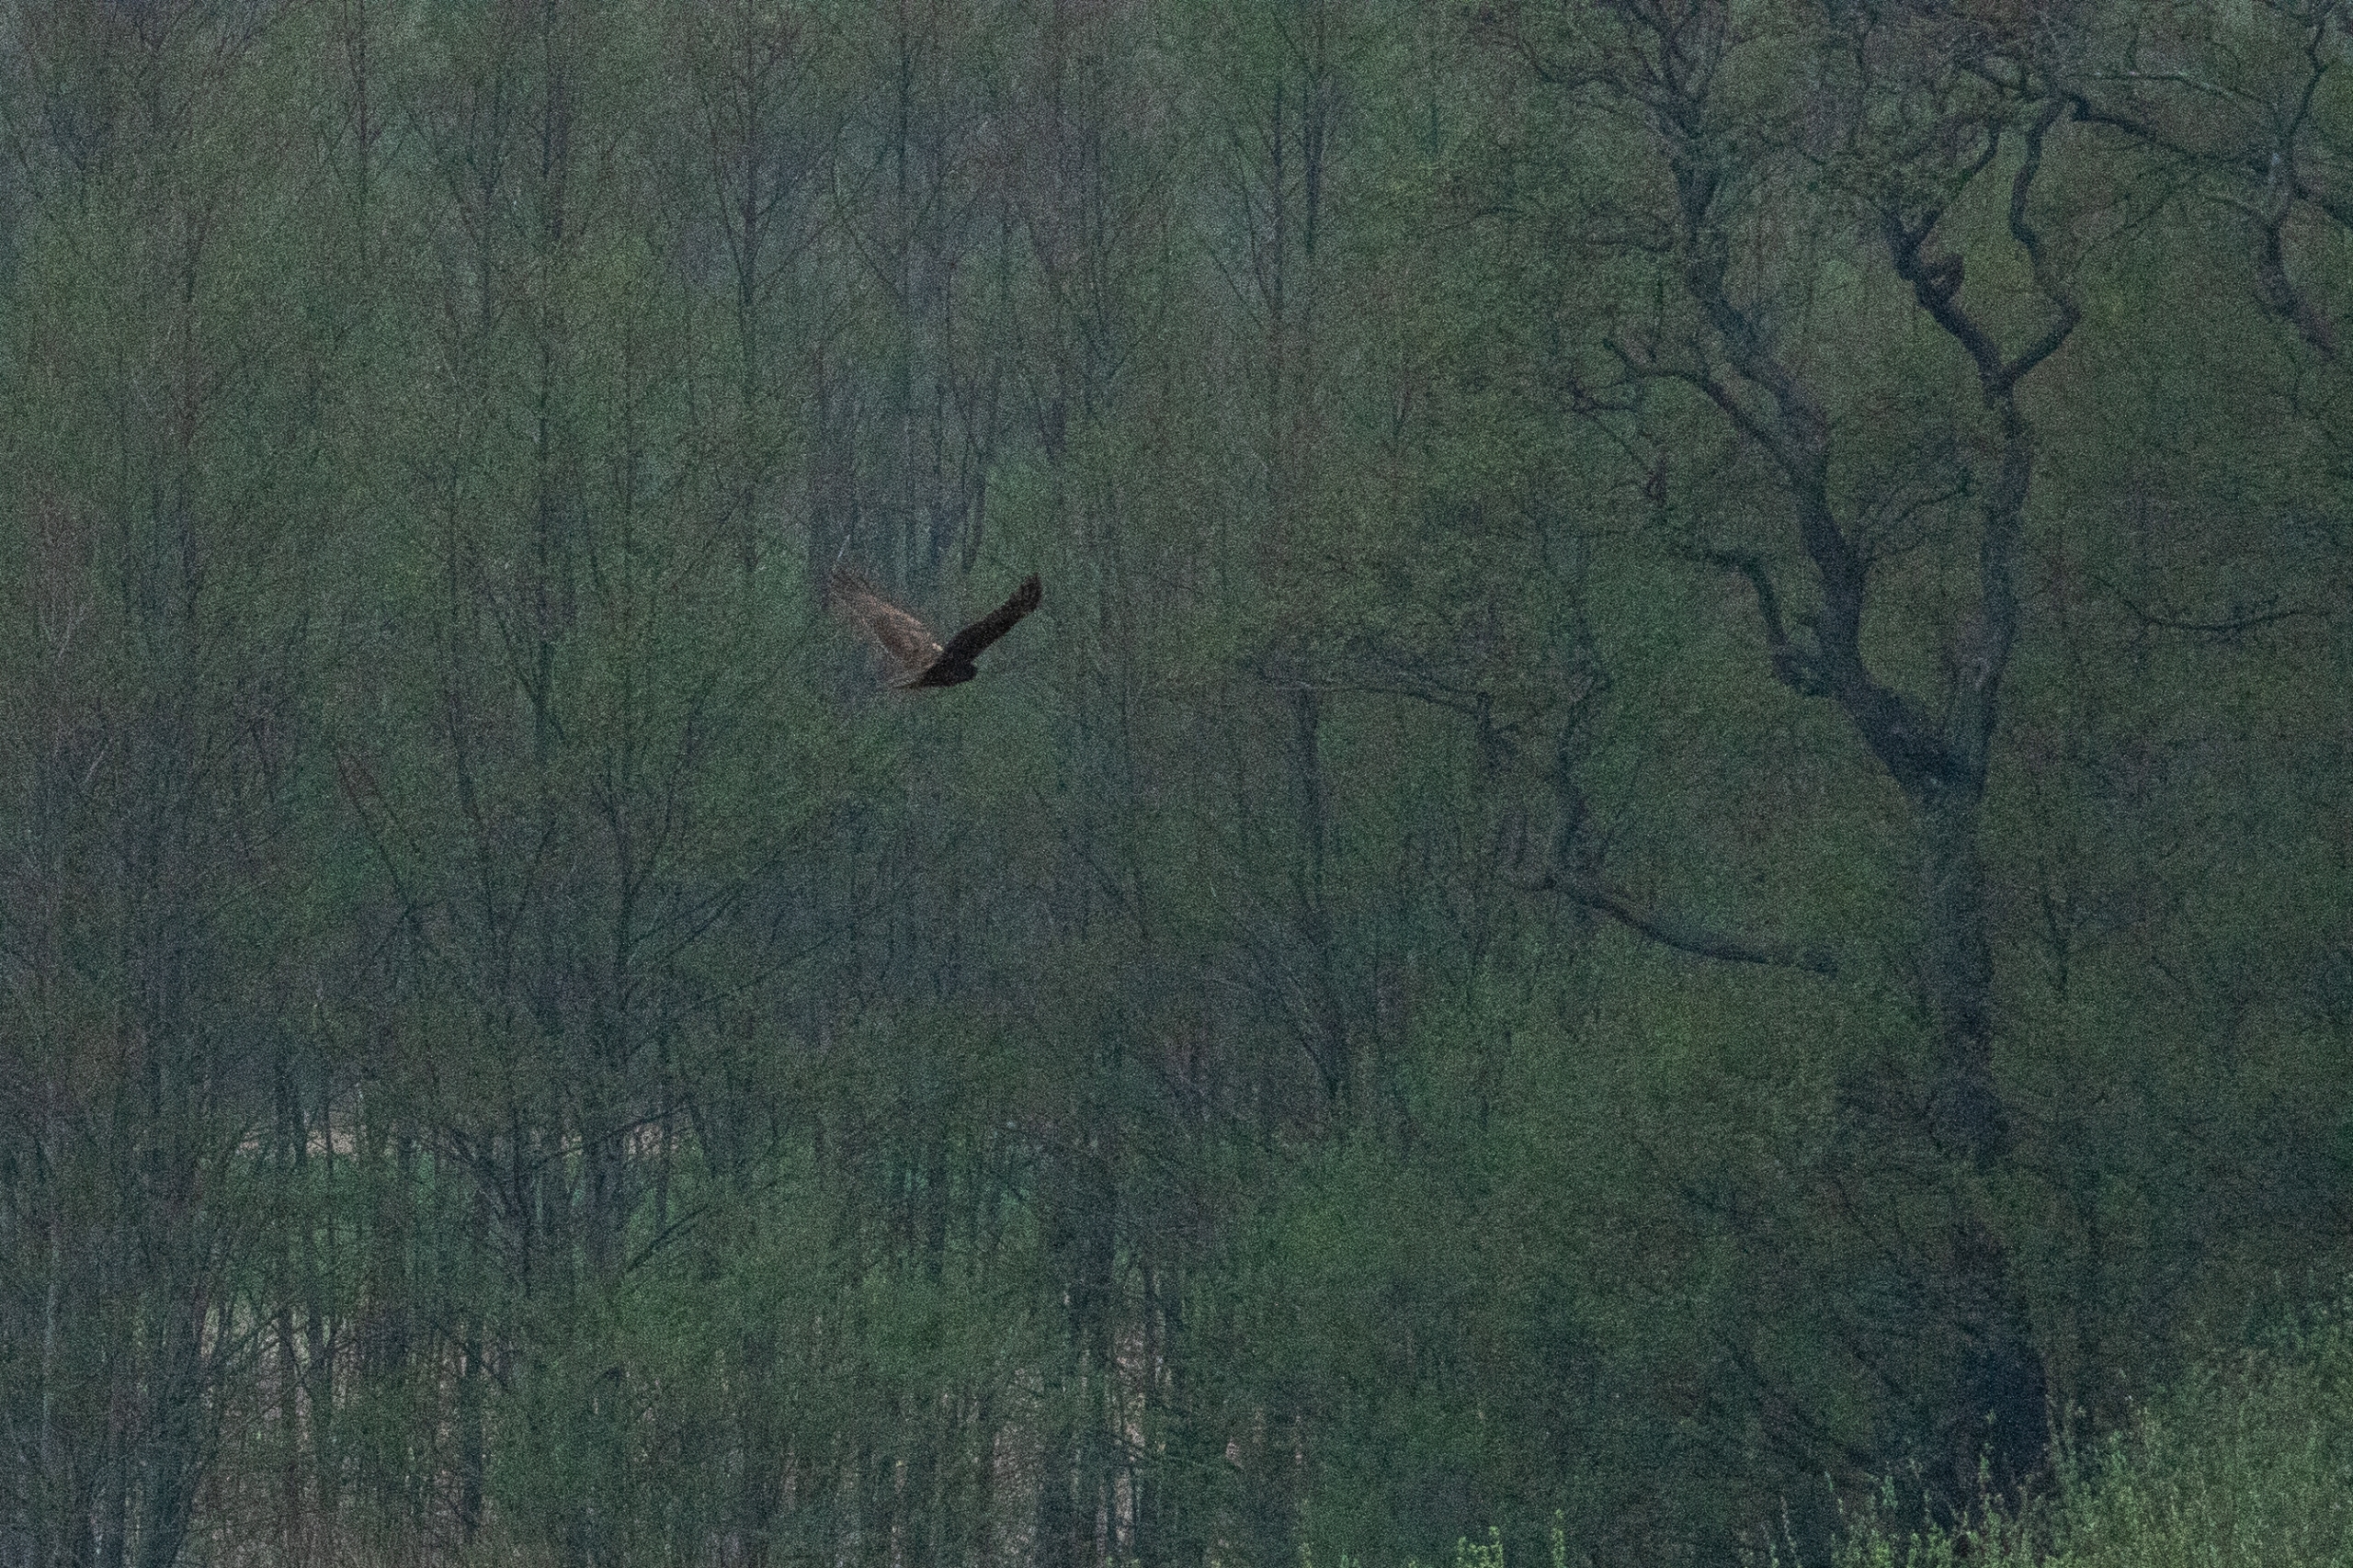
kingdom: Animalia
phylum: Chordata
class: Aves
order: Accipitriformes
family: Accipitridae
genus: Circus
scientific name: Circus aeruginosus
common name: Rørhøg
